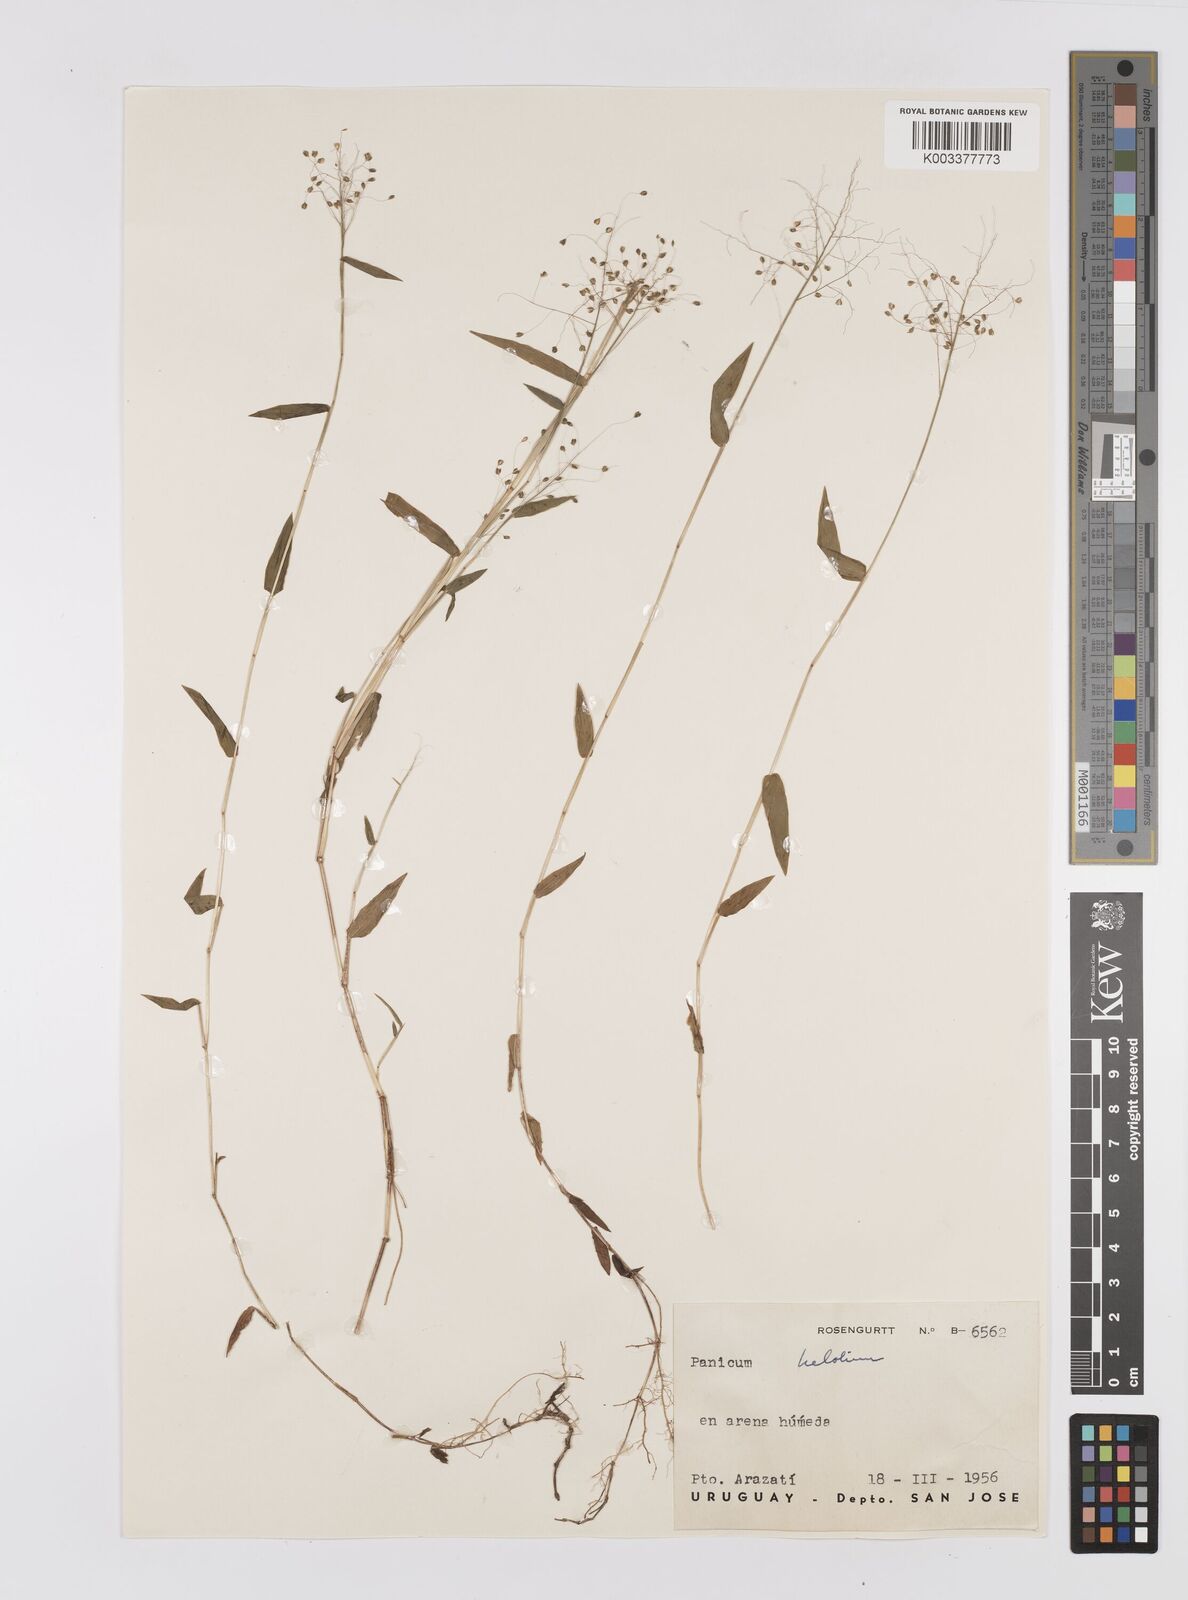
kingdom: Plantae
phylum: Tracheophyta
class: Liliopsida
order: Poales
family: Poaceae
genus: Trichanthecium
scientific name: Trichanthecium schwackeanum
